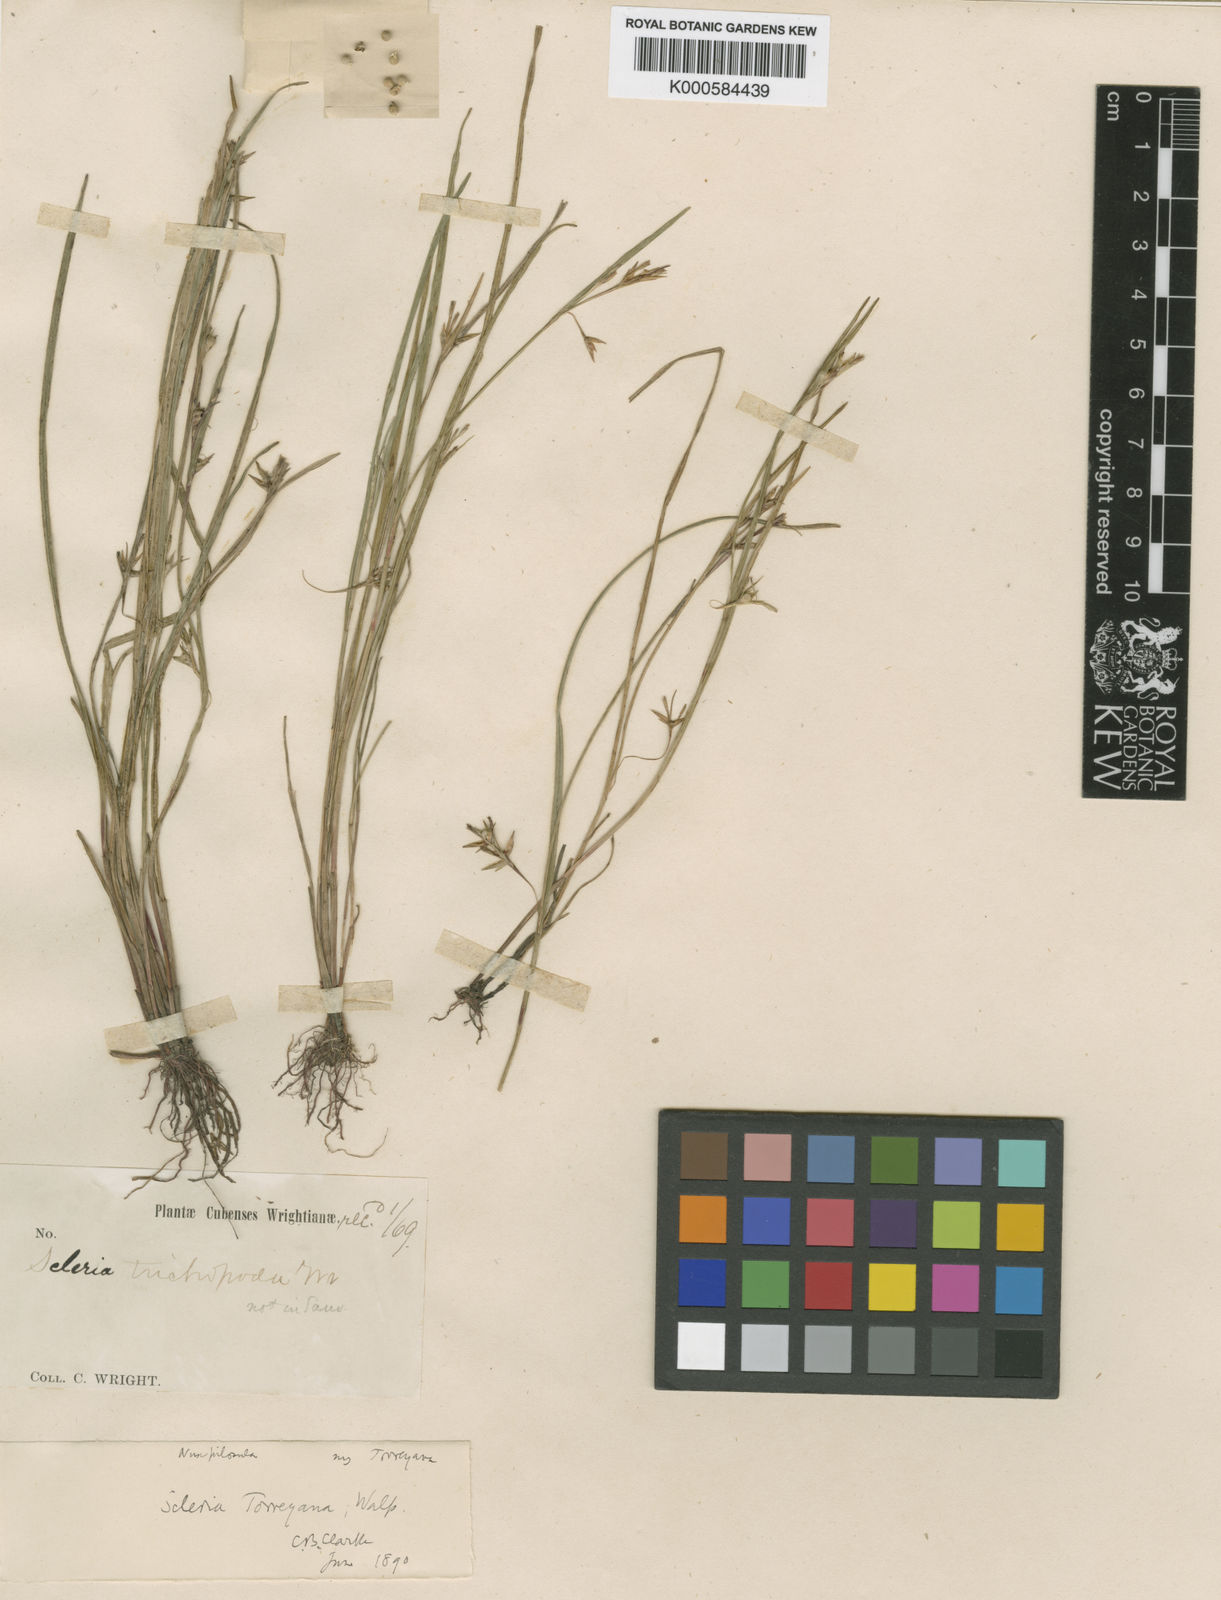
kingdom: Plantae
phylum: Tracheophyta
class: Liliopsida
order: Poales
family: Cyperaceae
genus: Scleria
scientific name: Scleria muehlenbergii
